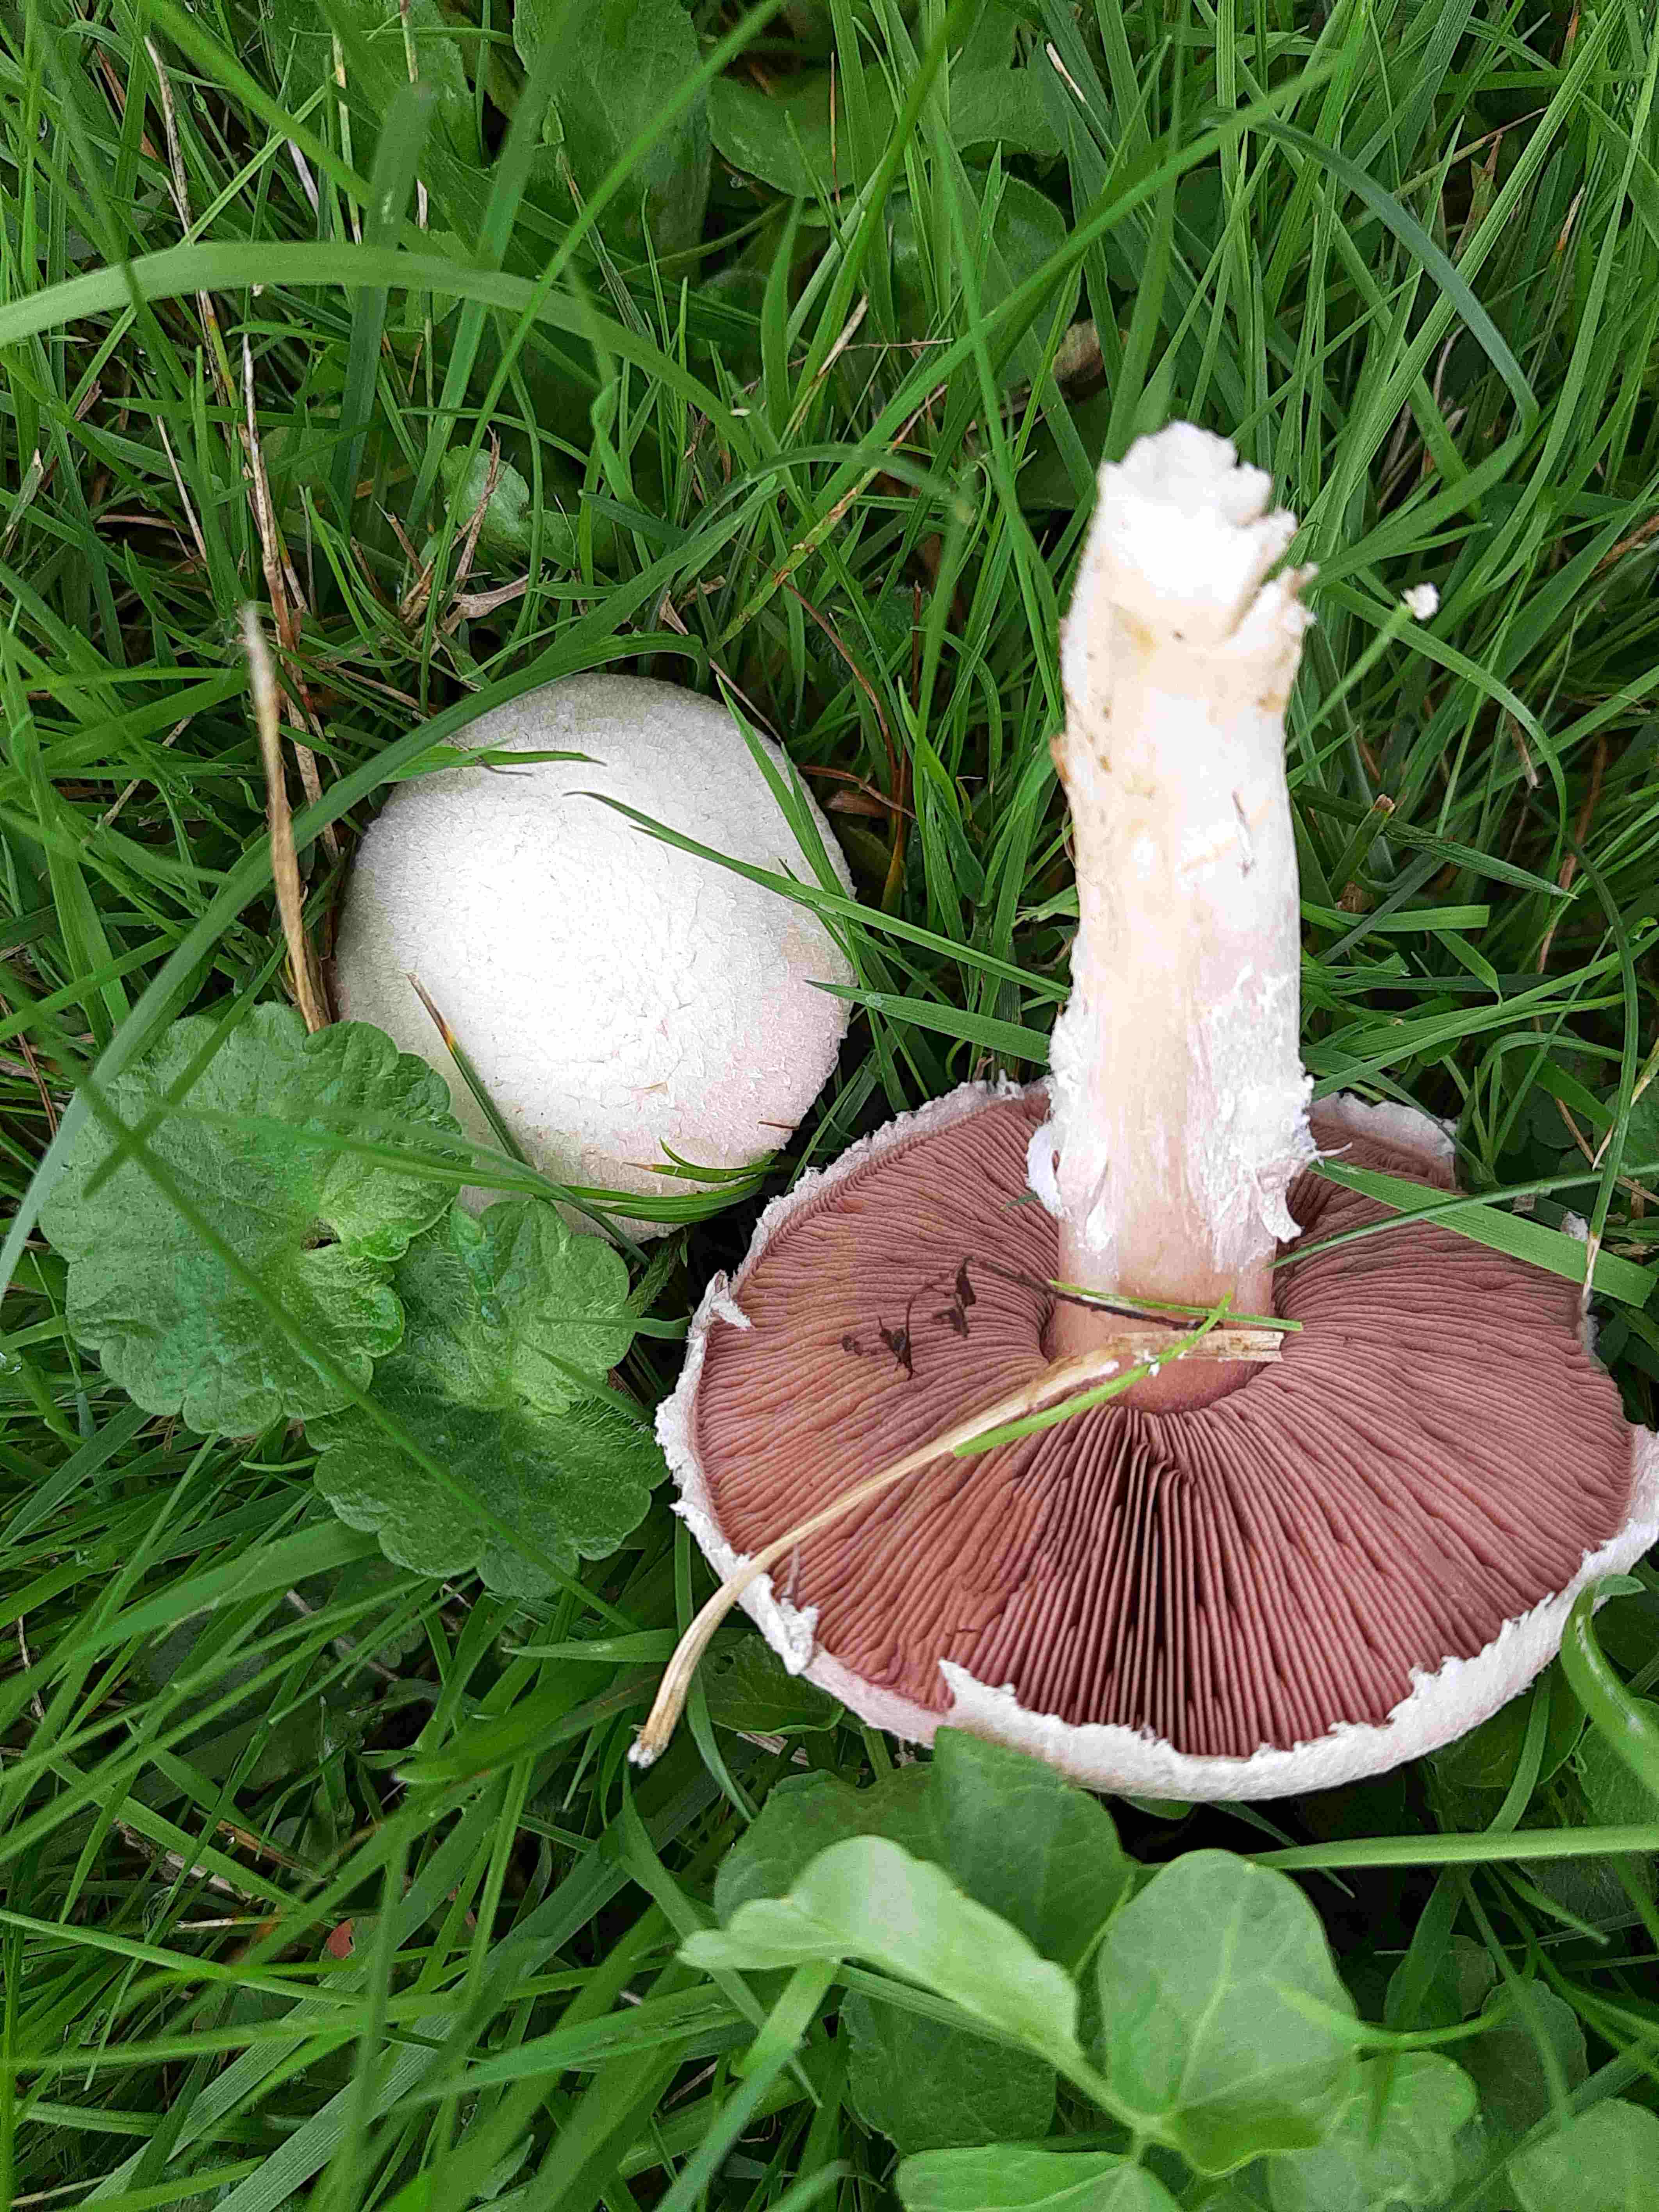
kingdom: Fungi
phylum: Basidiomycota
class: Agaricomycetes
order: Agaricales
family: Agaricaceae
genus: Agaricus
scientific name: Agaricus campestris
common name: mark-champignon
